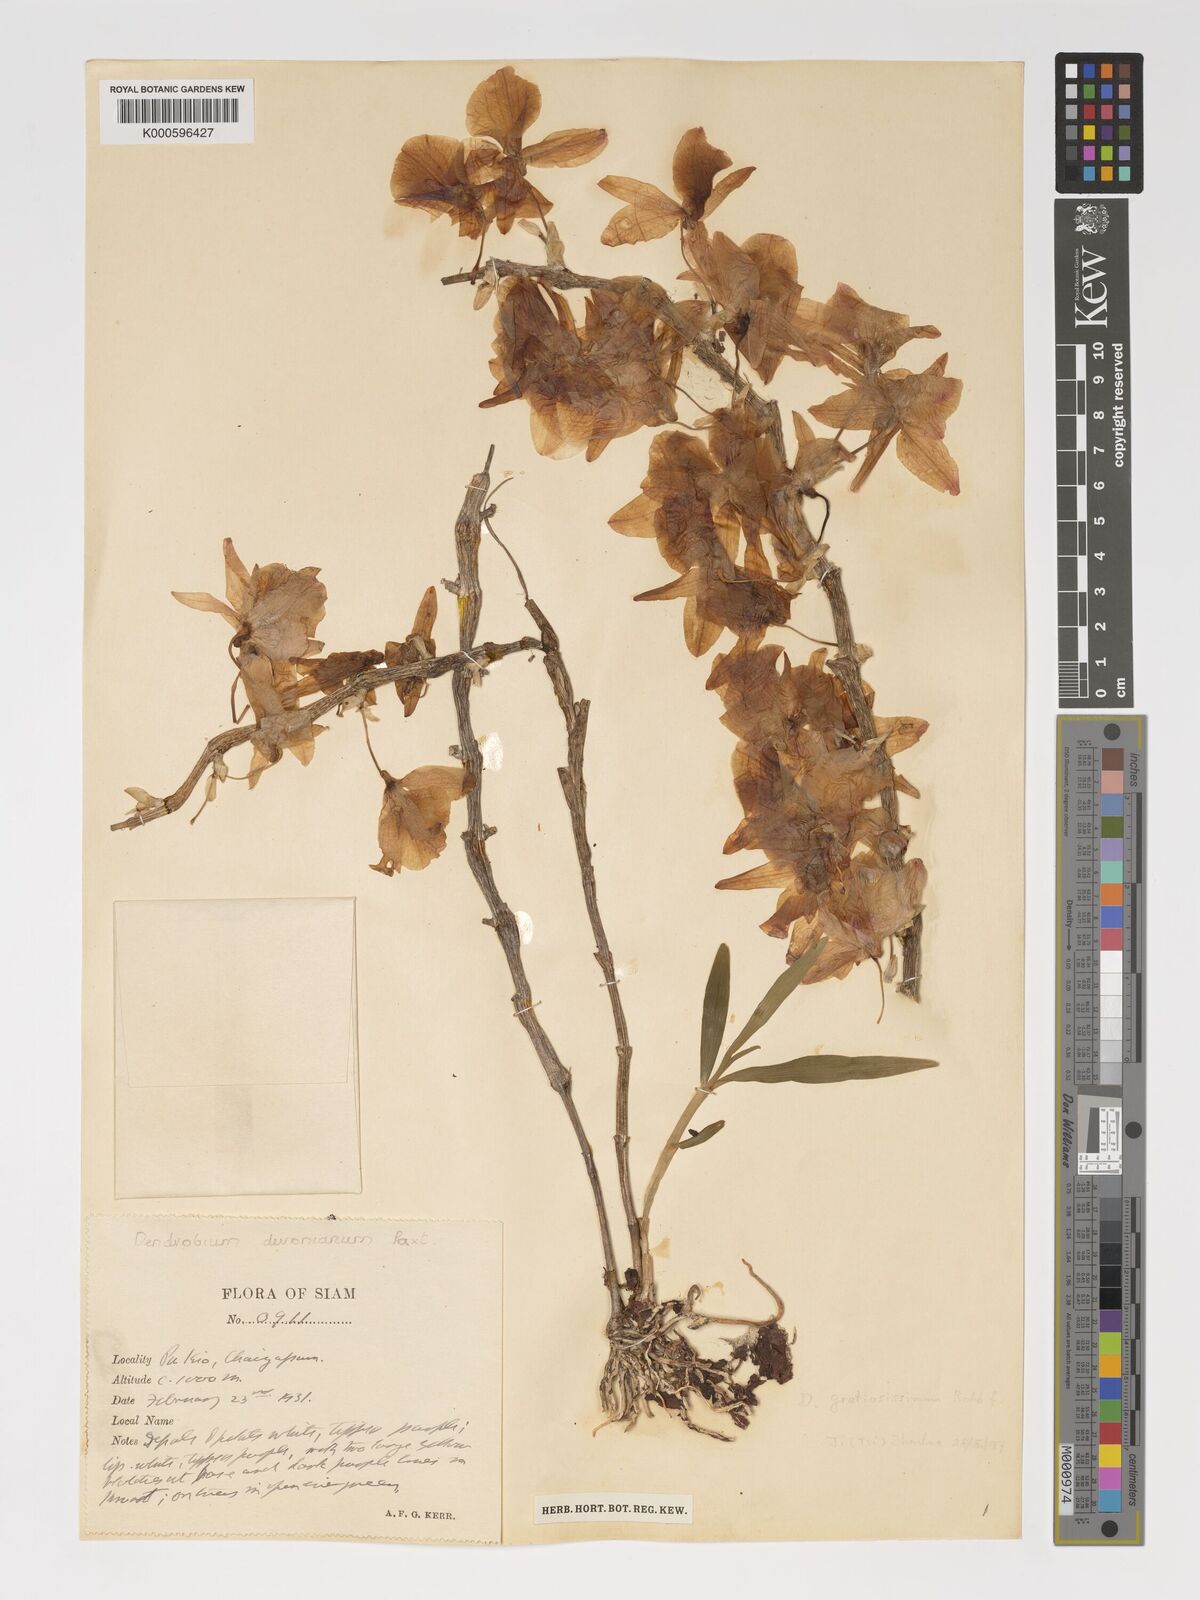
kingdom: Plantae
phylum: Tracheophyta
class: Liliopsida
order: Asparagales
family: Orchidaceae
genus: Dendrobium
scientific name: Dendrobium devonianum
